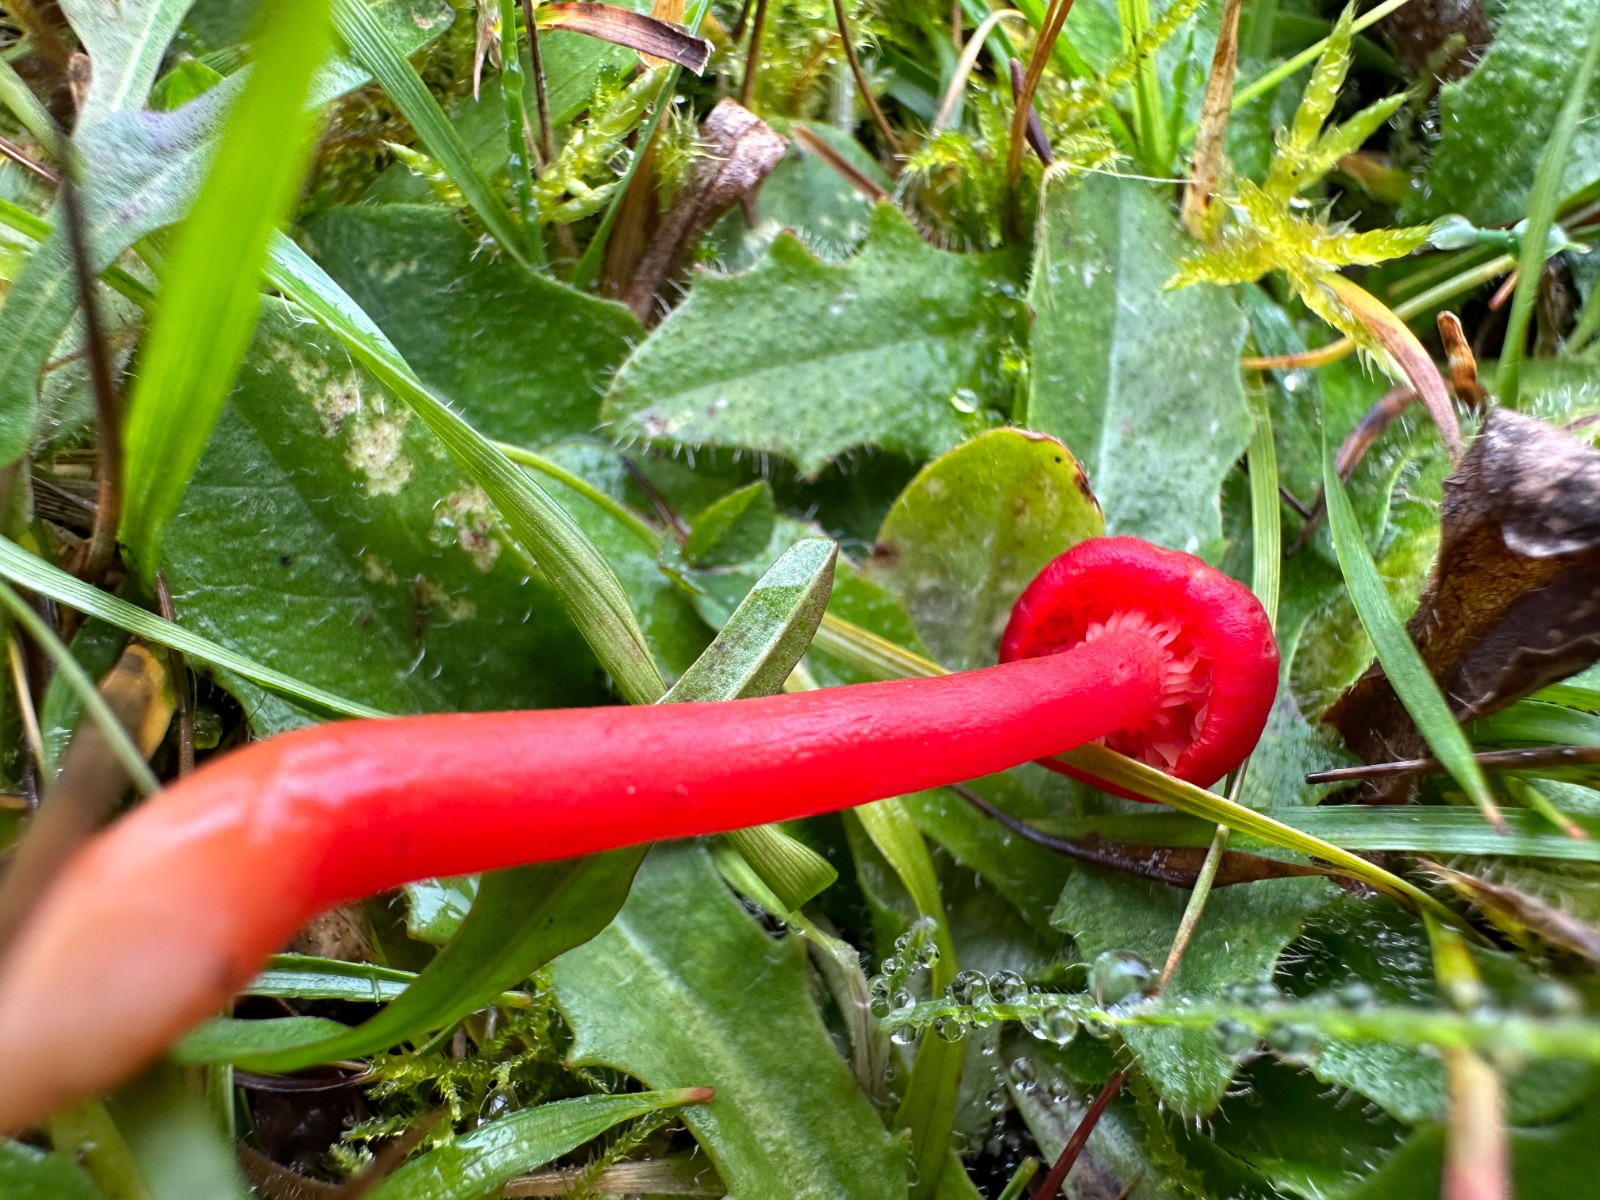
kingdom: Fungi
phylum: Basidiomycota
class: Agaricomycetes
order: Agaricales
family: Hygrophoraceae
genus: Hygrocybe
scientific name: Hygrocybe phaeococcinea
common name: sortdugget vokshat
